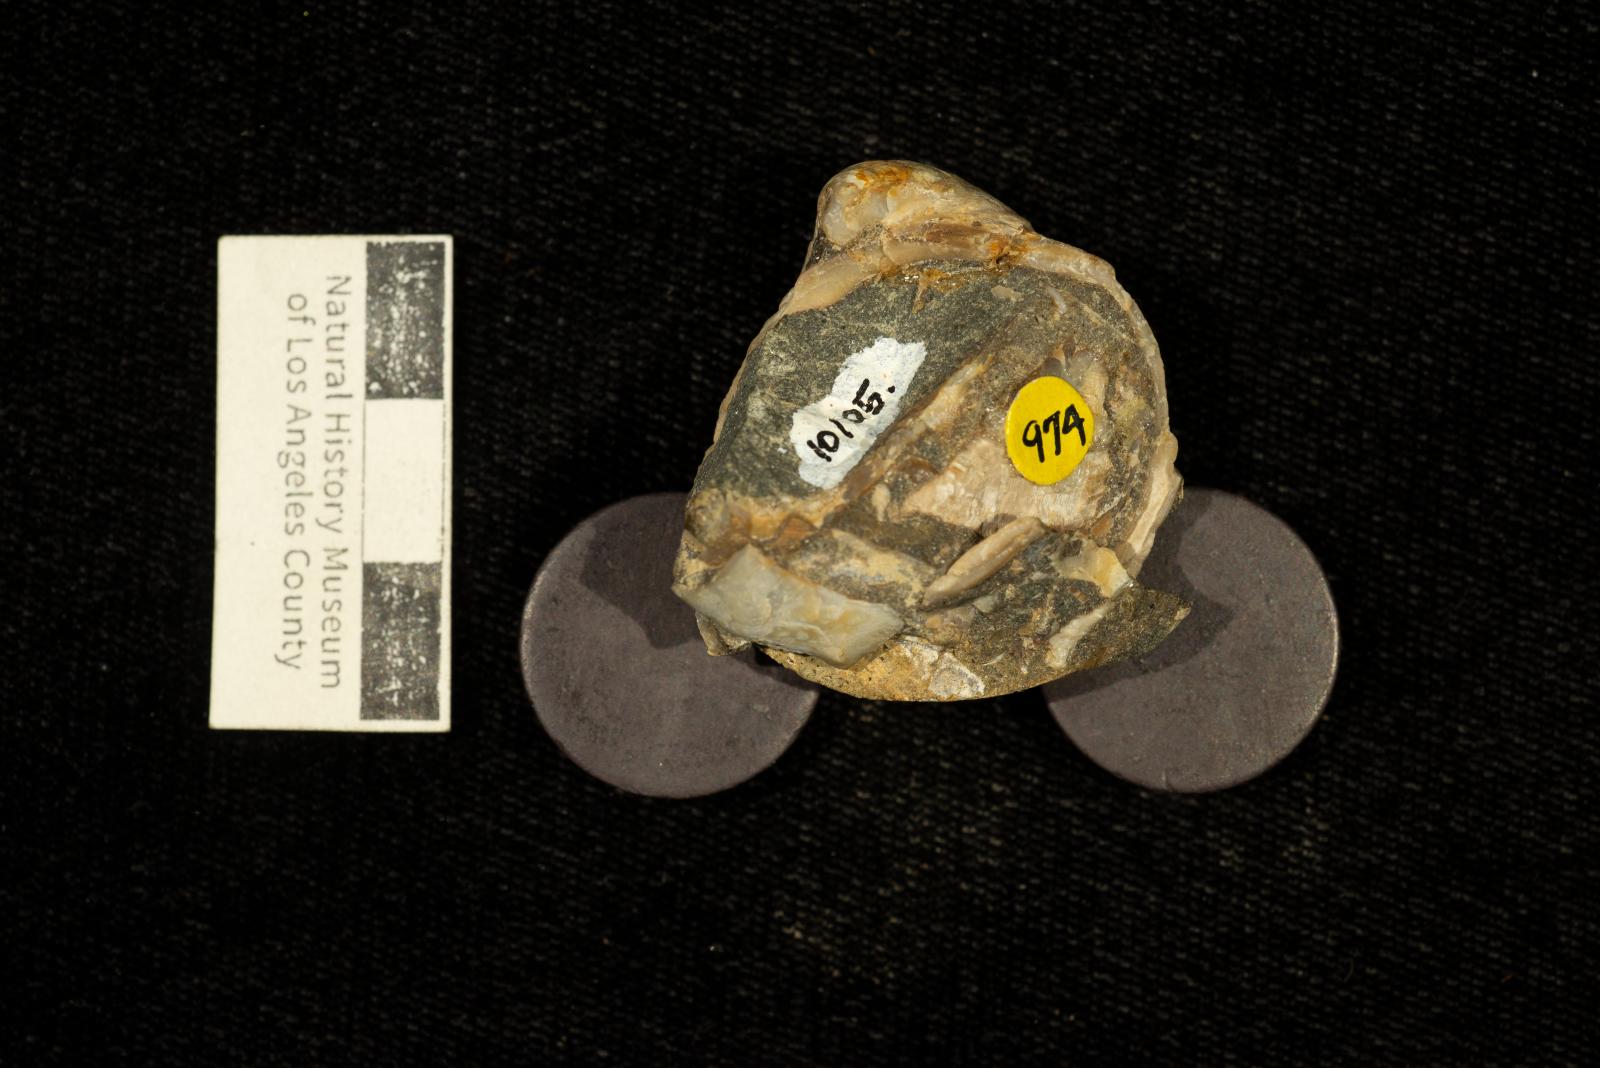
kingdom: Animalia
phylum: Mollusca
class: Bivalvia
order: Adapedonta
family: Edmondiidae
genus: Clisocolus
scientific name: Clisocolus dubius
